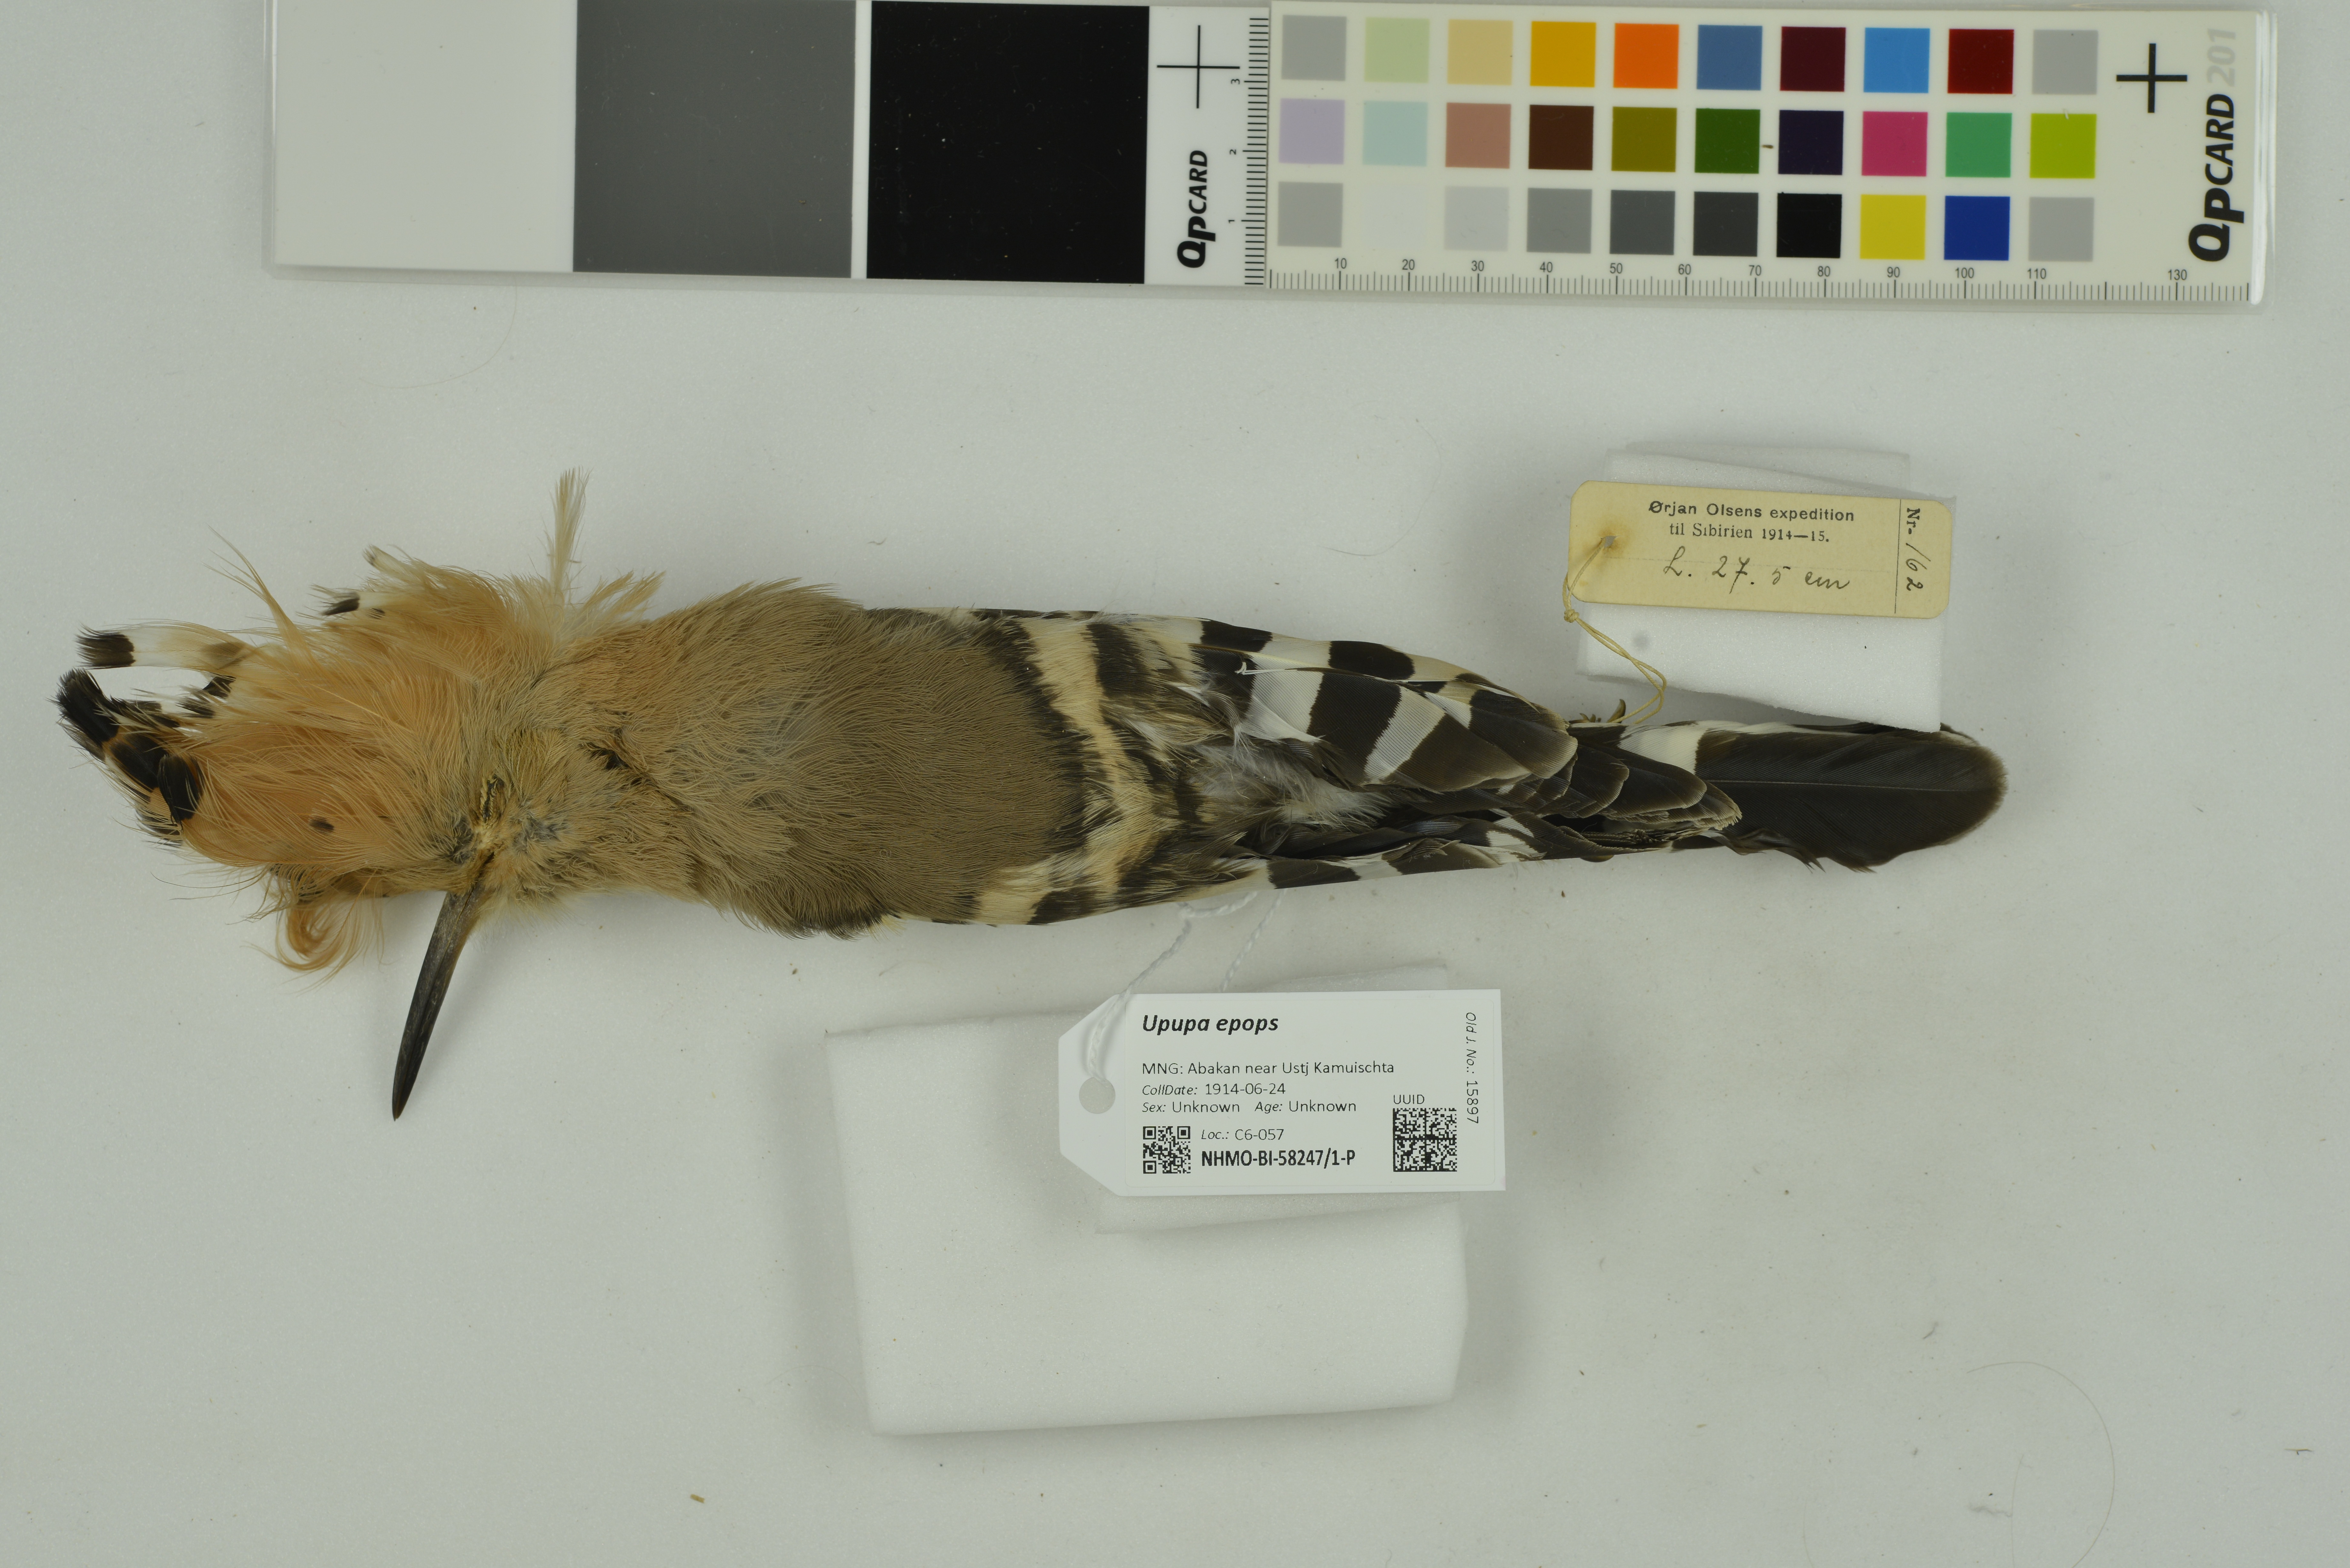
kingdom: Animalia
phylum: Chordata
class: Aves
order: Bucerotiformes
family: Upupidae
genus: Upupa
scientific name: Upupa epops
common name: Eurasian hoopoe
